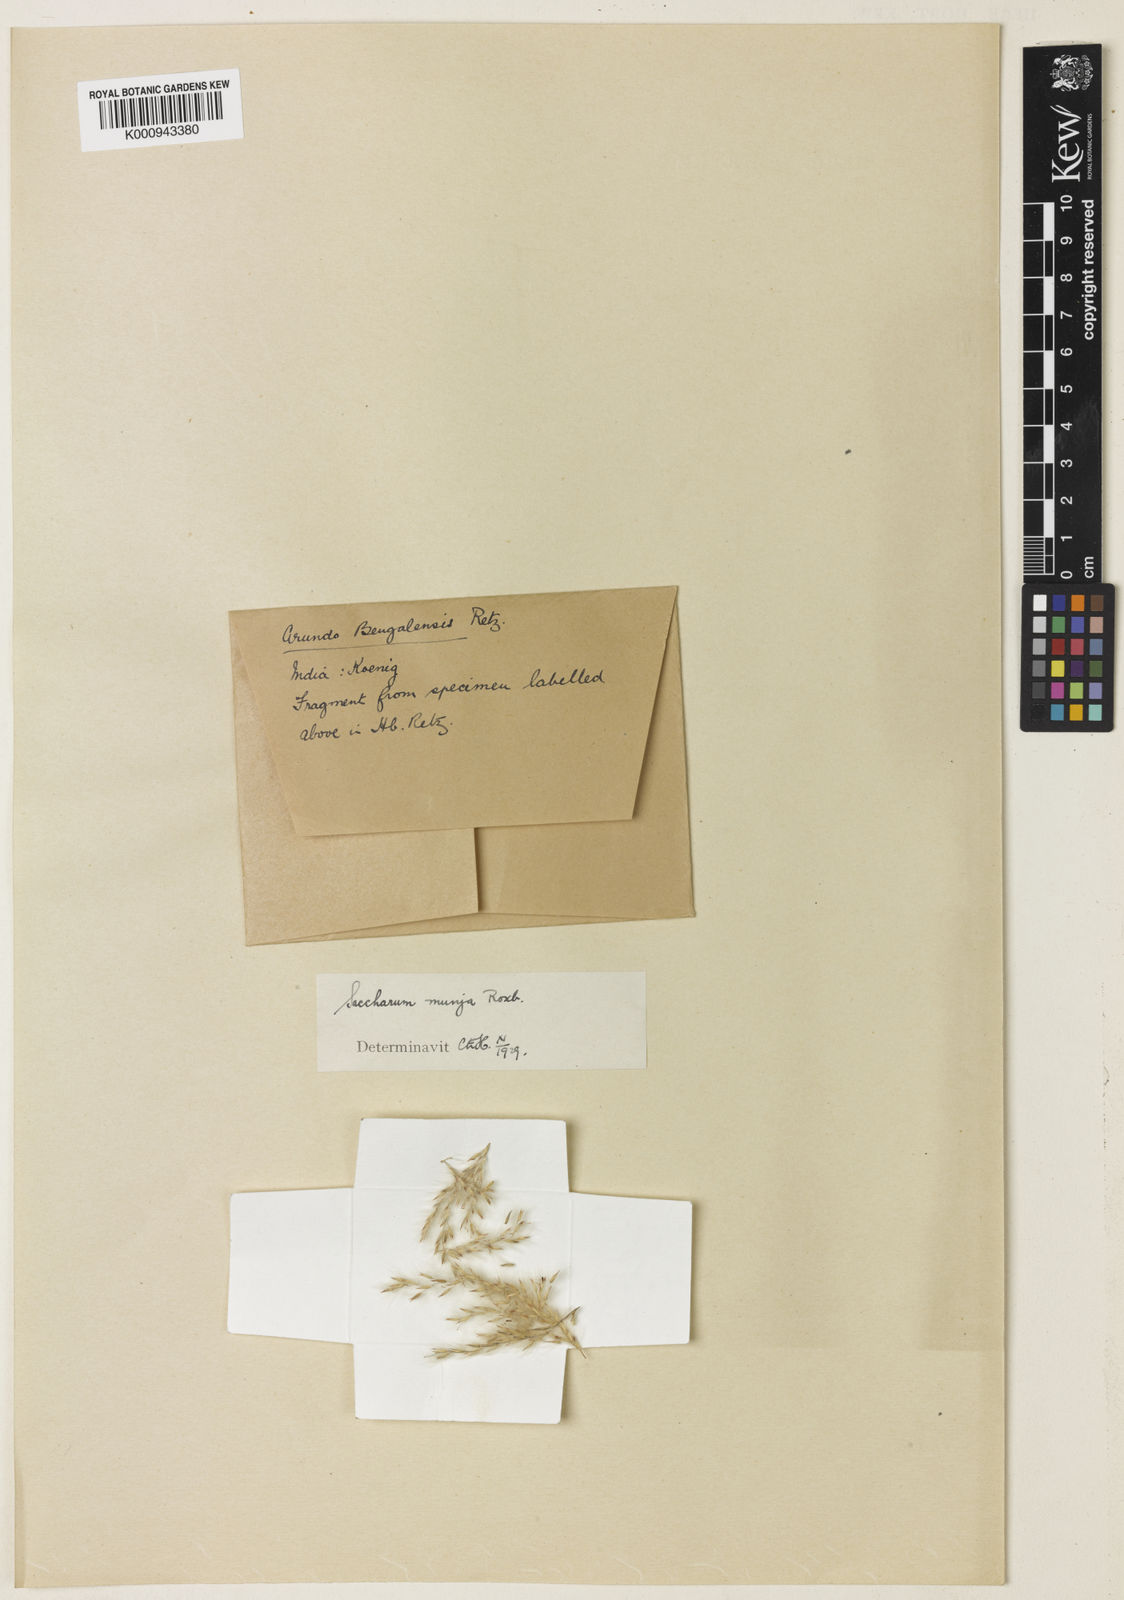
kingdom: Plantae
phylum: Tracheophyta
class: Liliopsida
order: Poales
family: Poaceae
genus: Tripidium
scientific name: Tripidium bengalense
